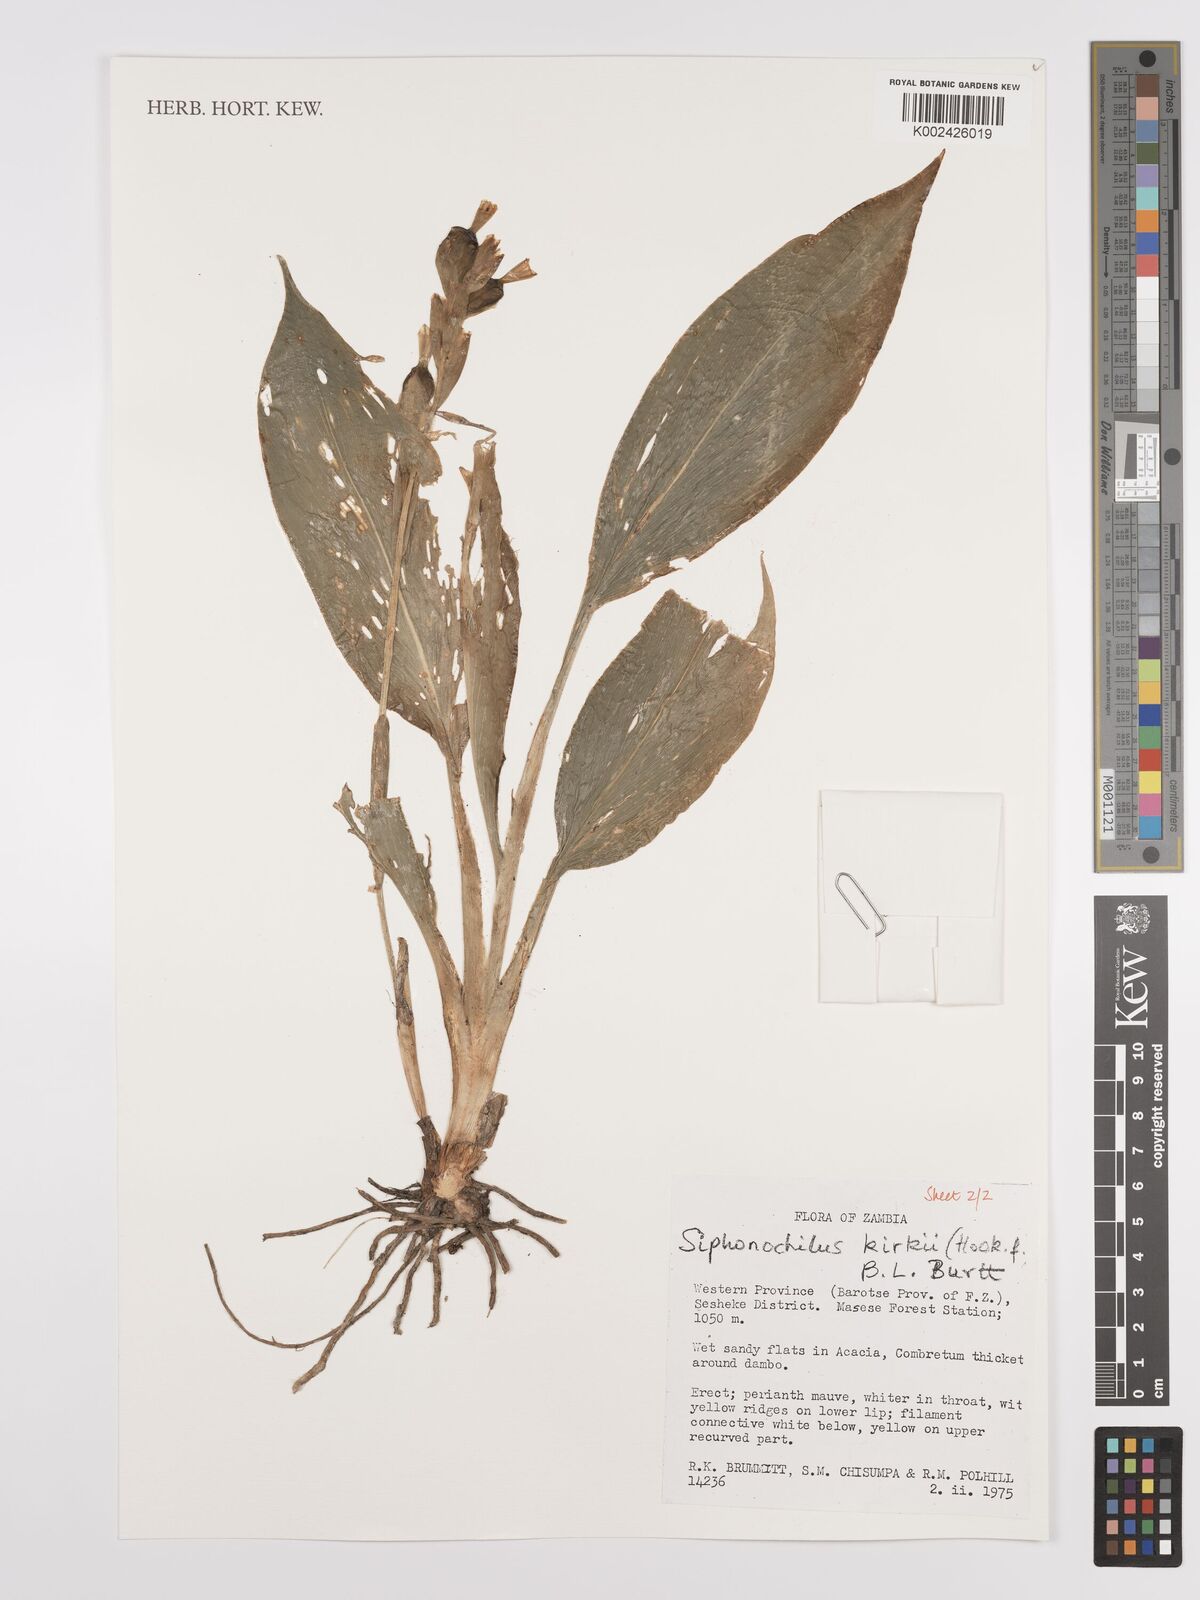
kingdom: Plantae
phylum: Tracheophyta
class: Liliopsida
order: Zingiberales
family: Zingiberaceae
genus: Siphonochilus
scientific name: Siphonochilus kirkii
